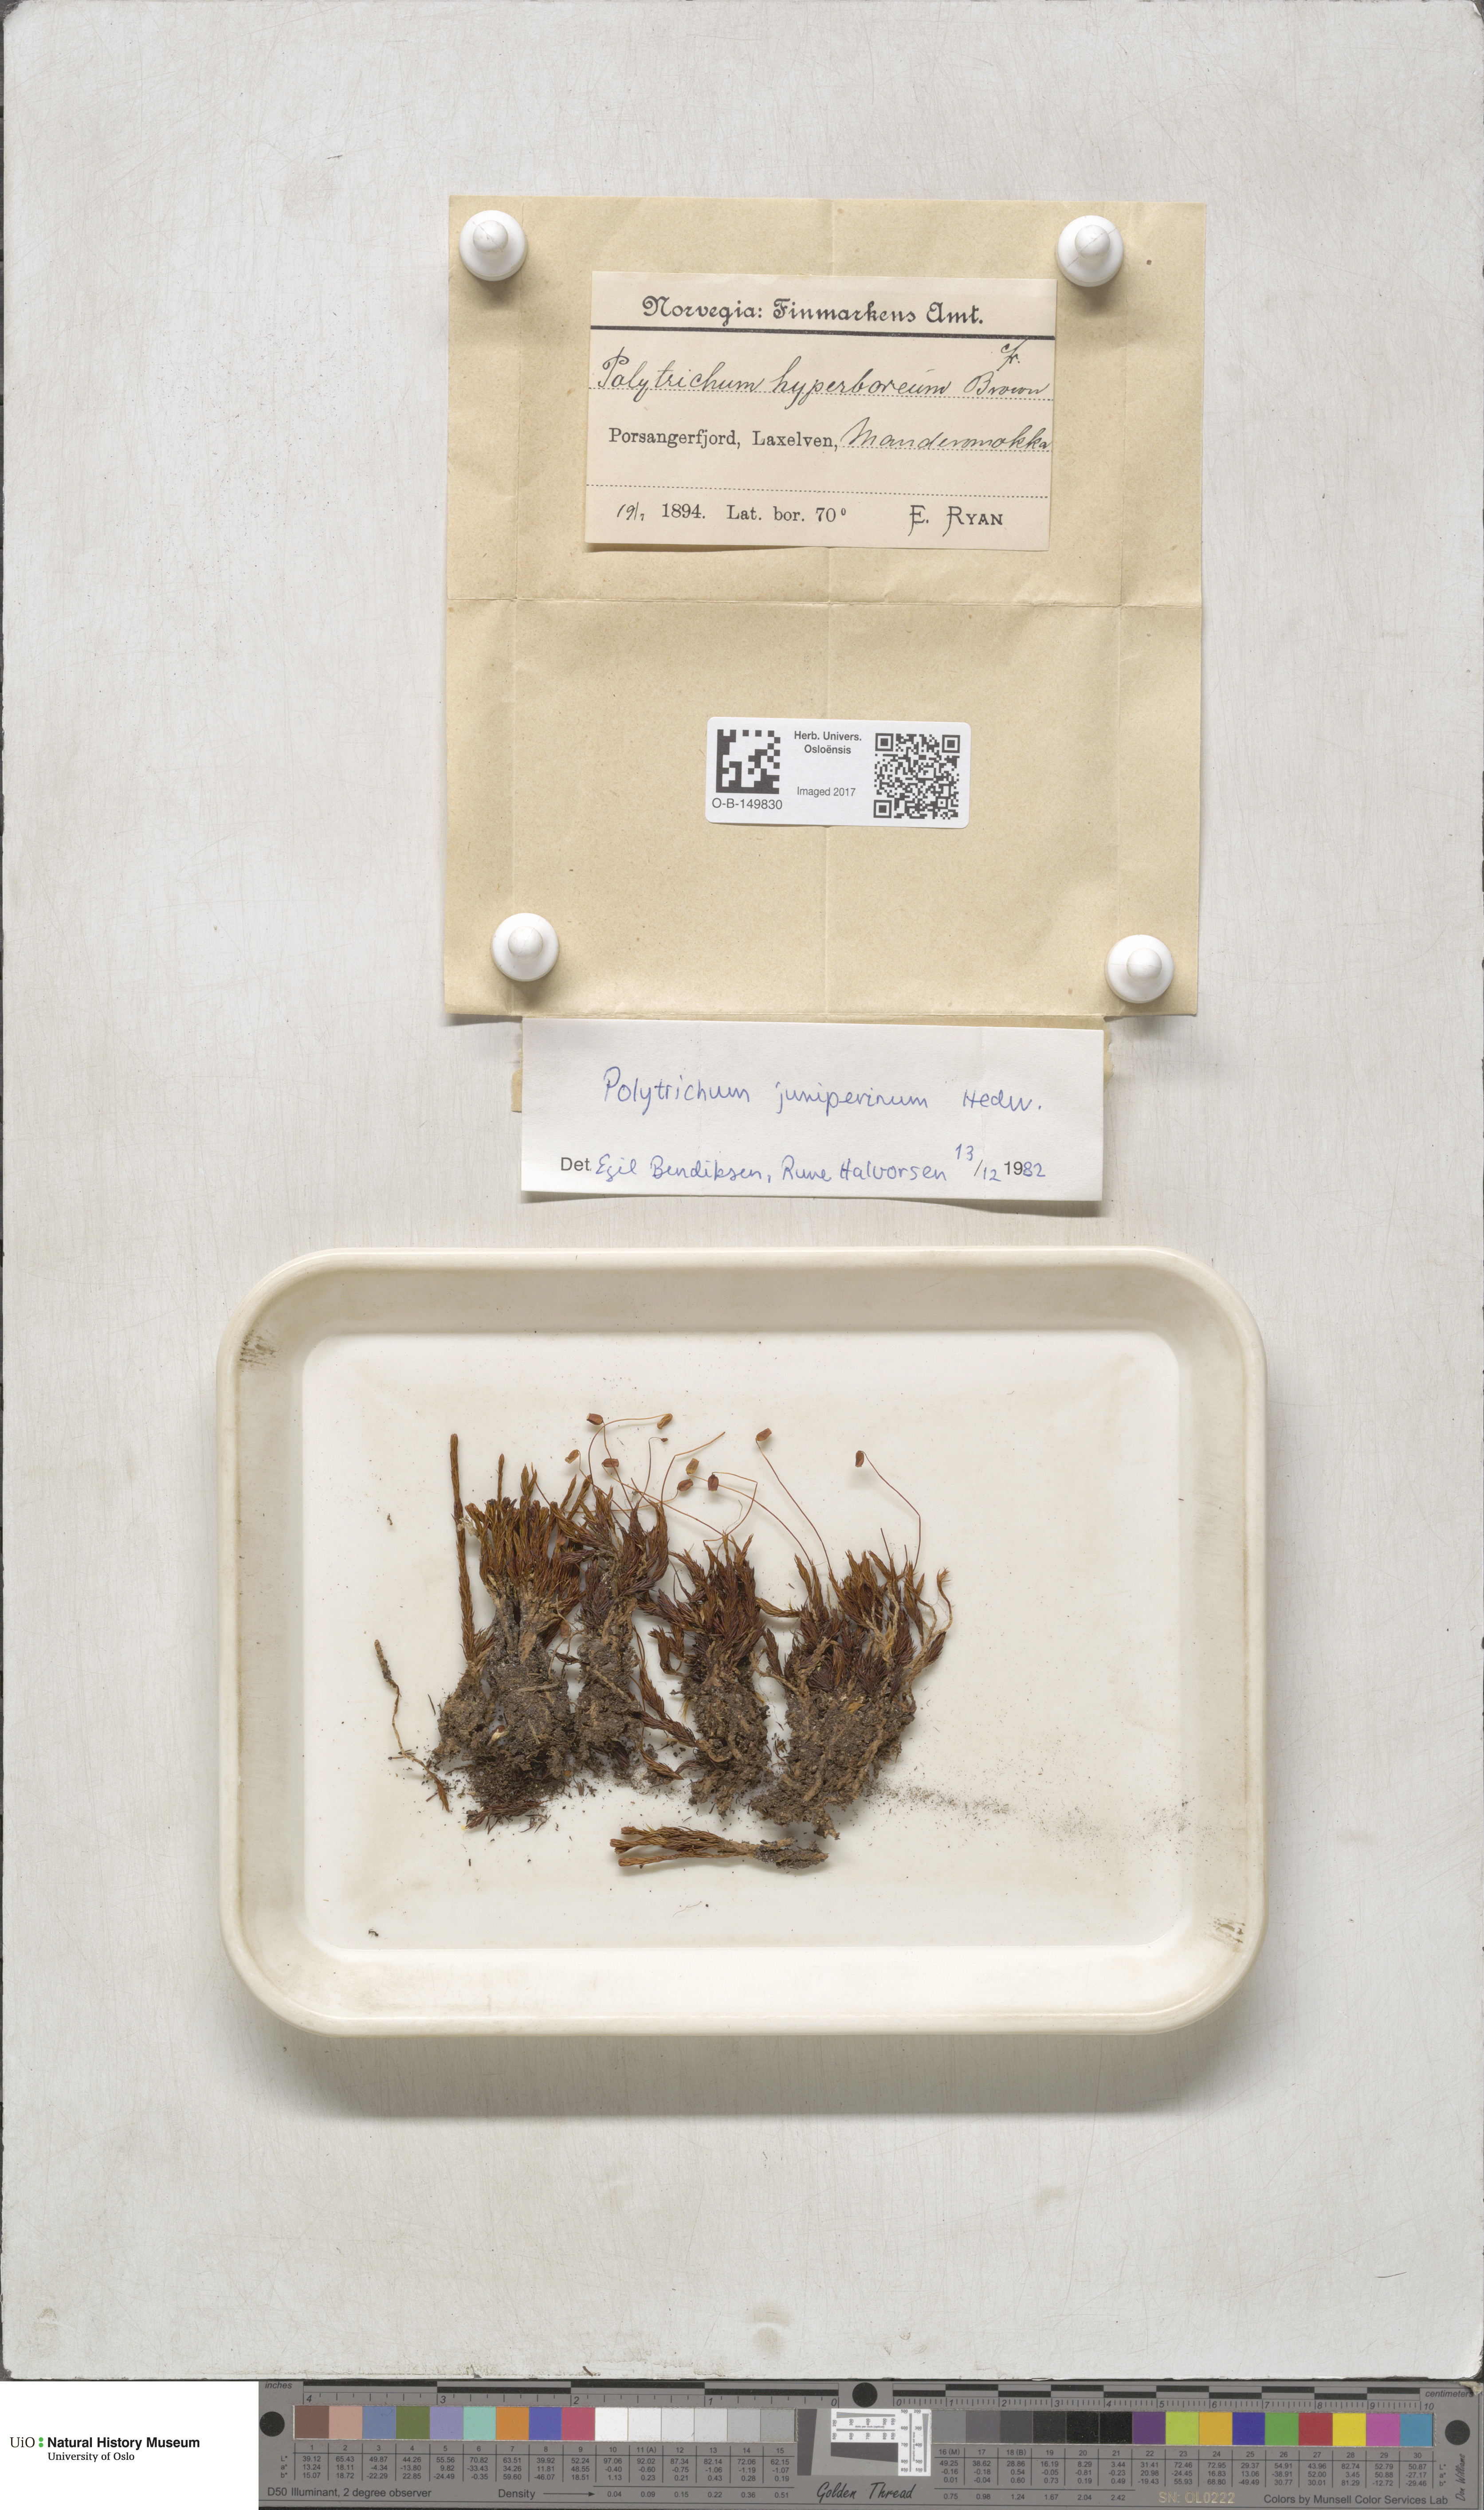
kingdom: Plantae
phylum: Bryophyta
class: Polytrichopsida
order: Polytrichales
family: Polytrichaceae
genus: Polytrichum
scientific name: Polytrichum juniperinum
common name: Juniper haircap moss
